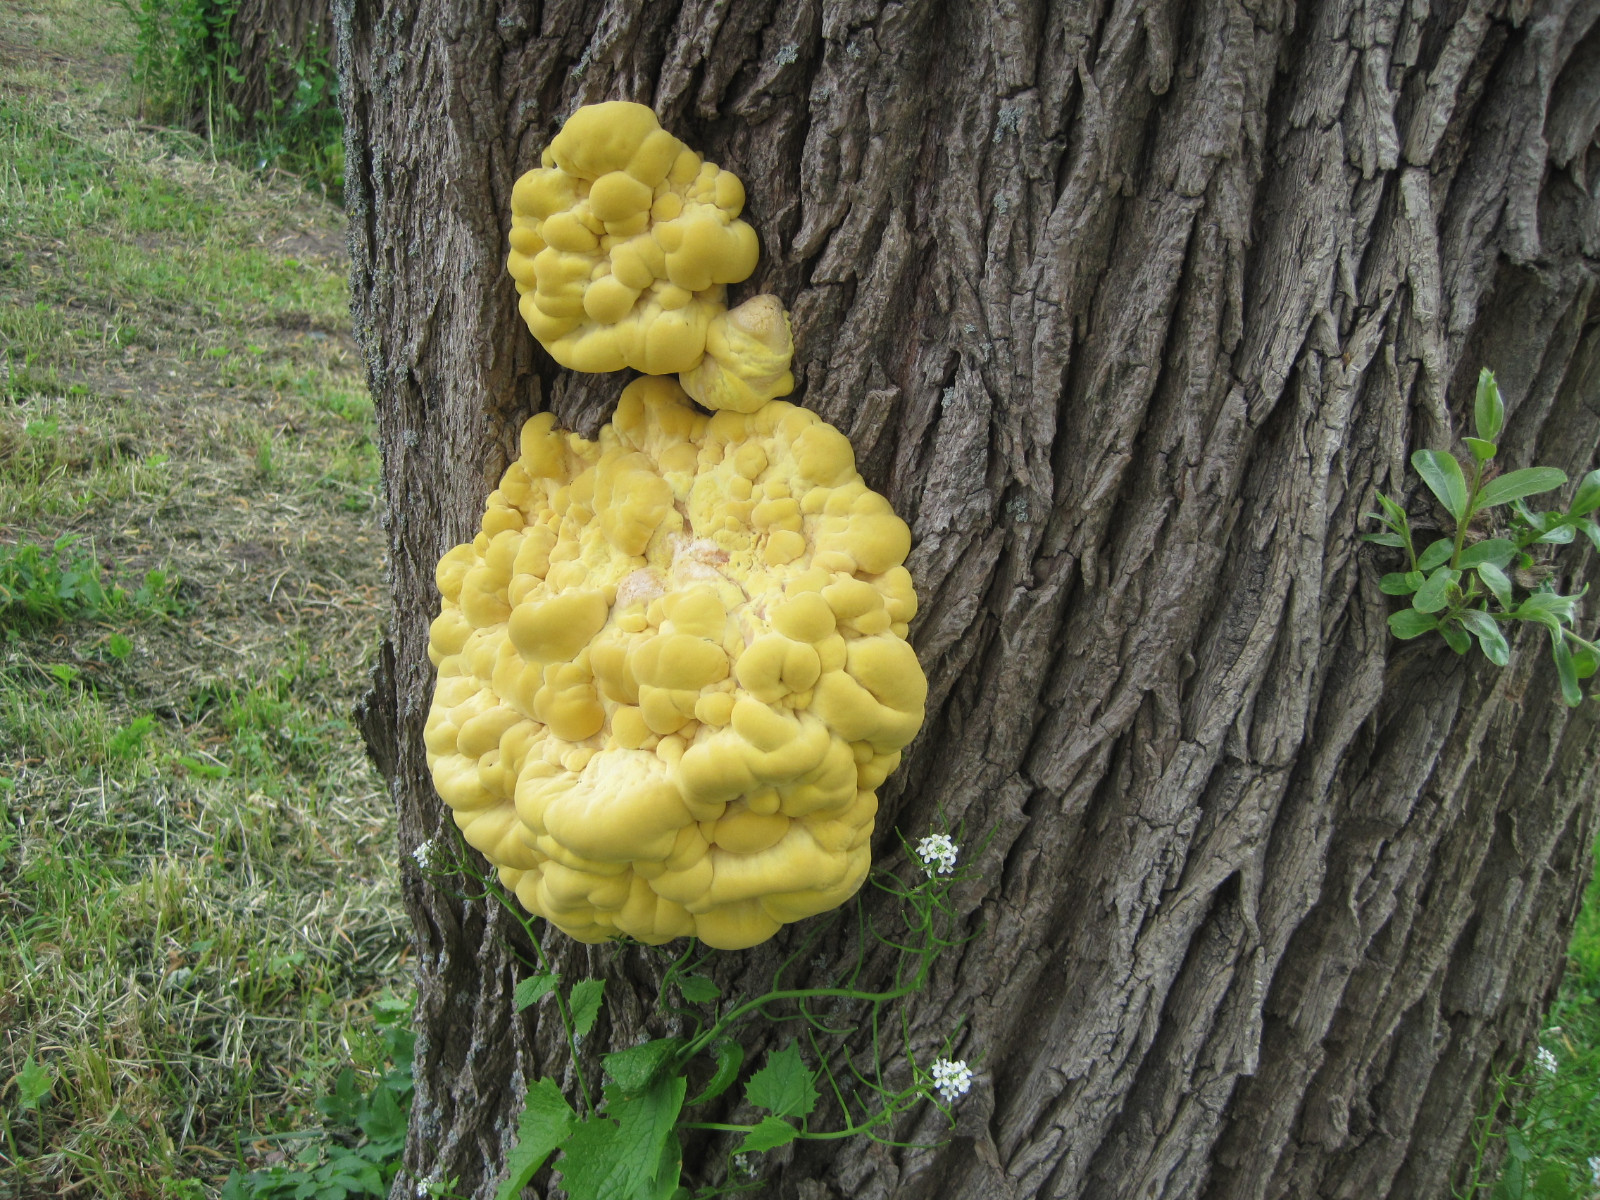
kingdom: Fungi
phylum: Basidiomycota
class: Agaricomycetes
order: Polyporales
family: Laetiporaceae
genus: Laetiporus
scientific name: Laetiporus sulphureus
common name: svovlporesvamp
